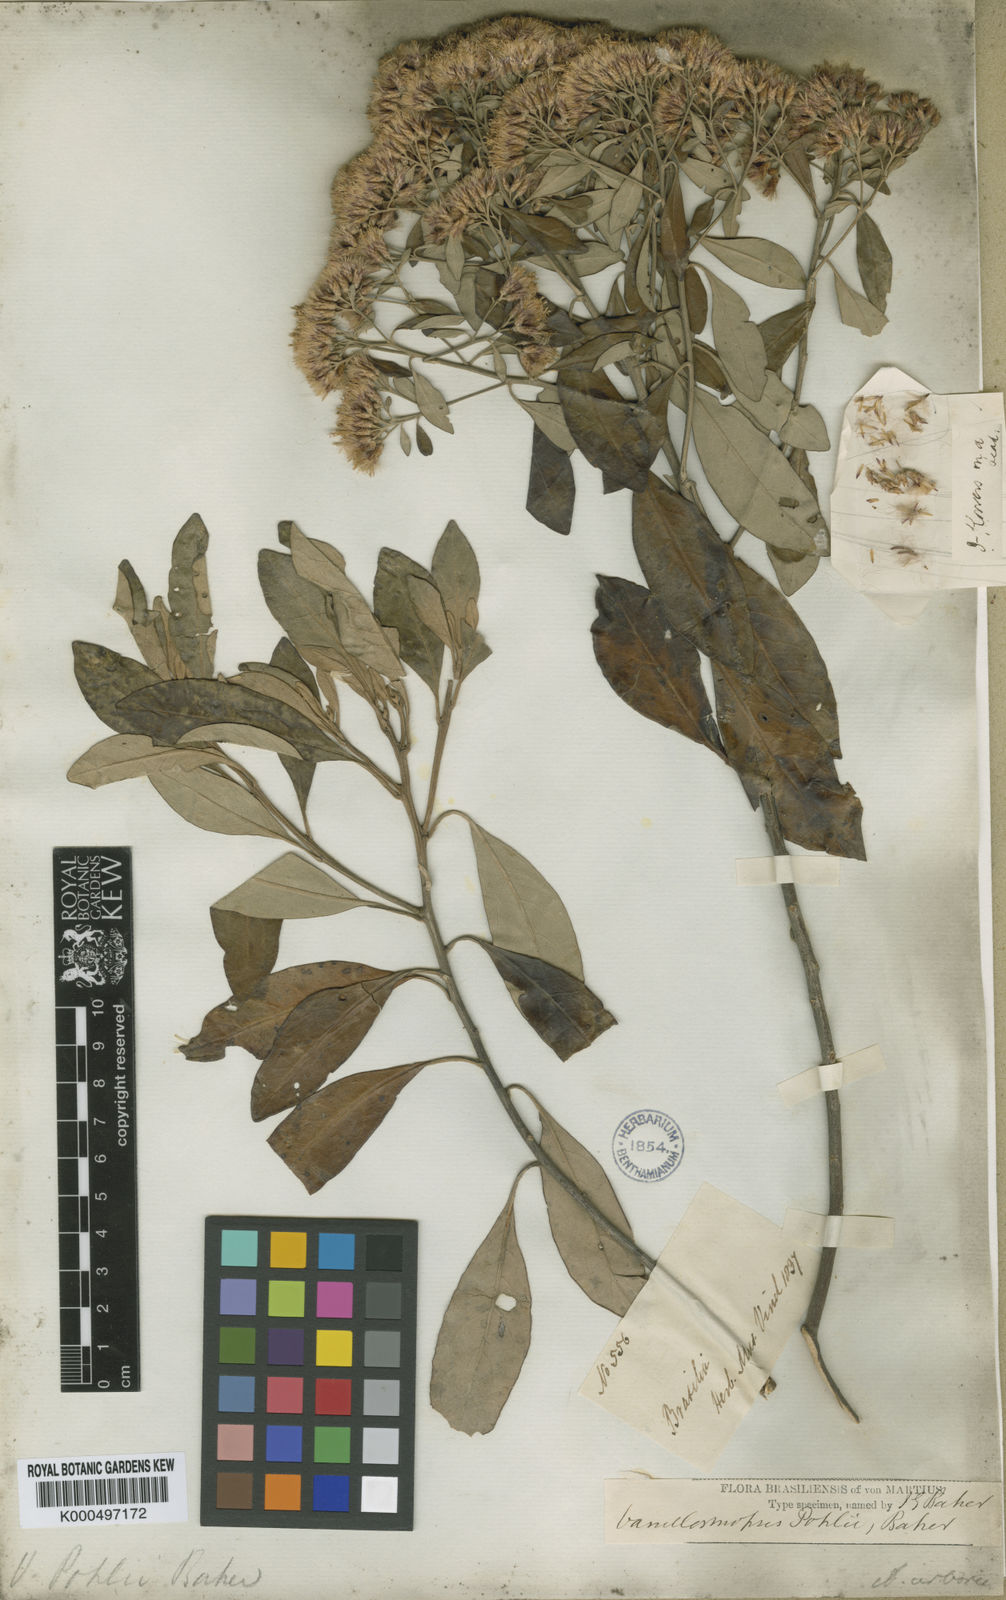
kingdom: Plantae
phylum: Tracheophyta
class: Magnoliopsida
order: Asterales
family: Asteraceae
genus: Eremanthus
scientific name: Eremanthus capitatus
